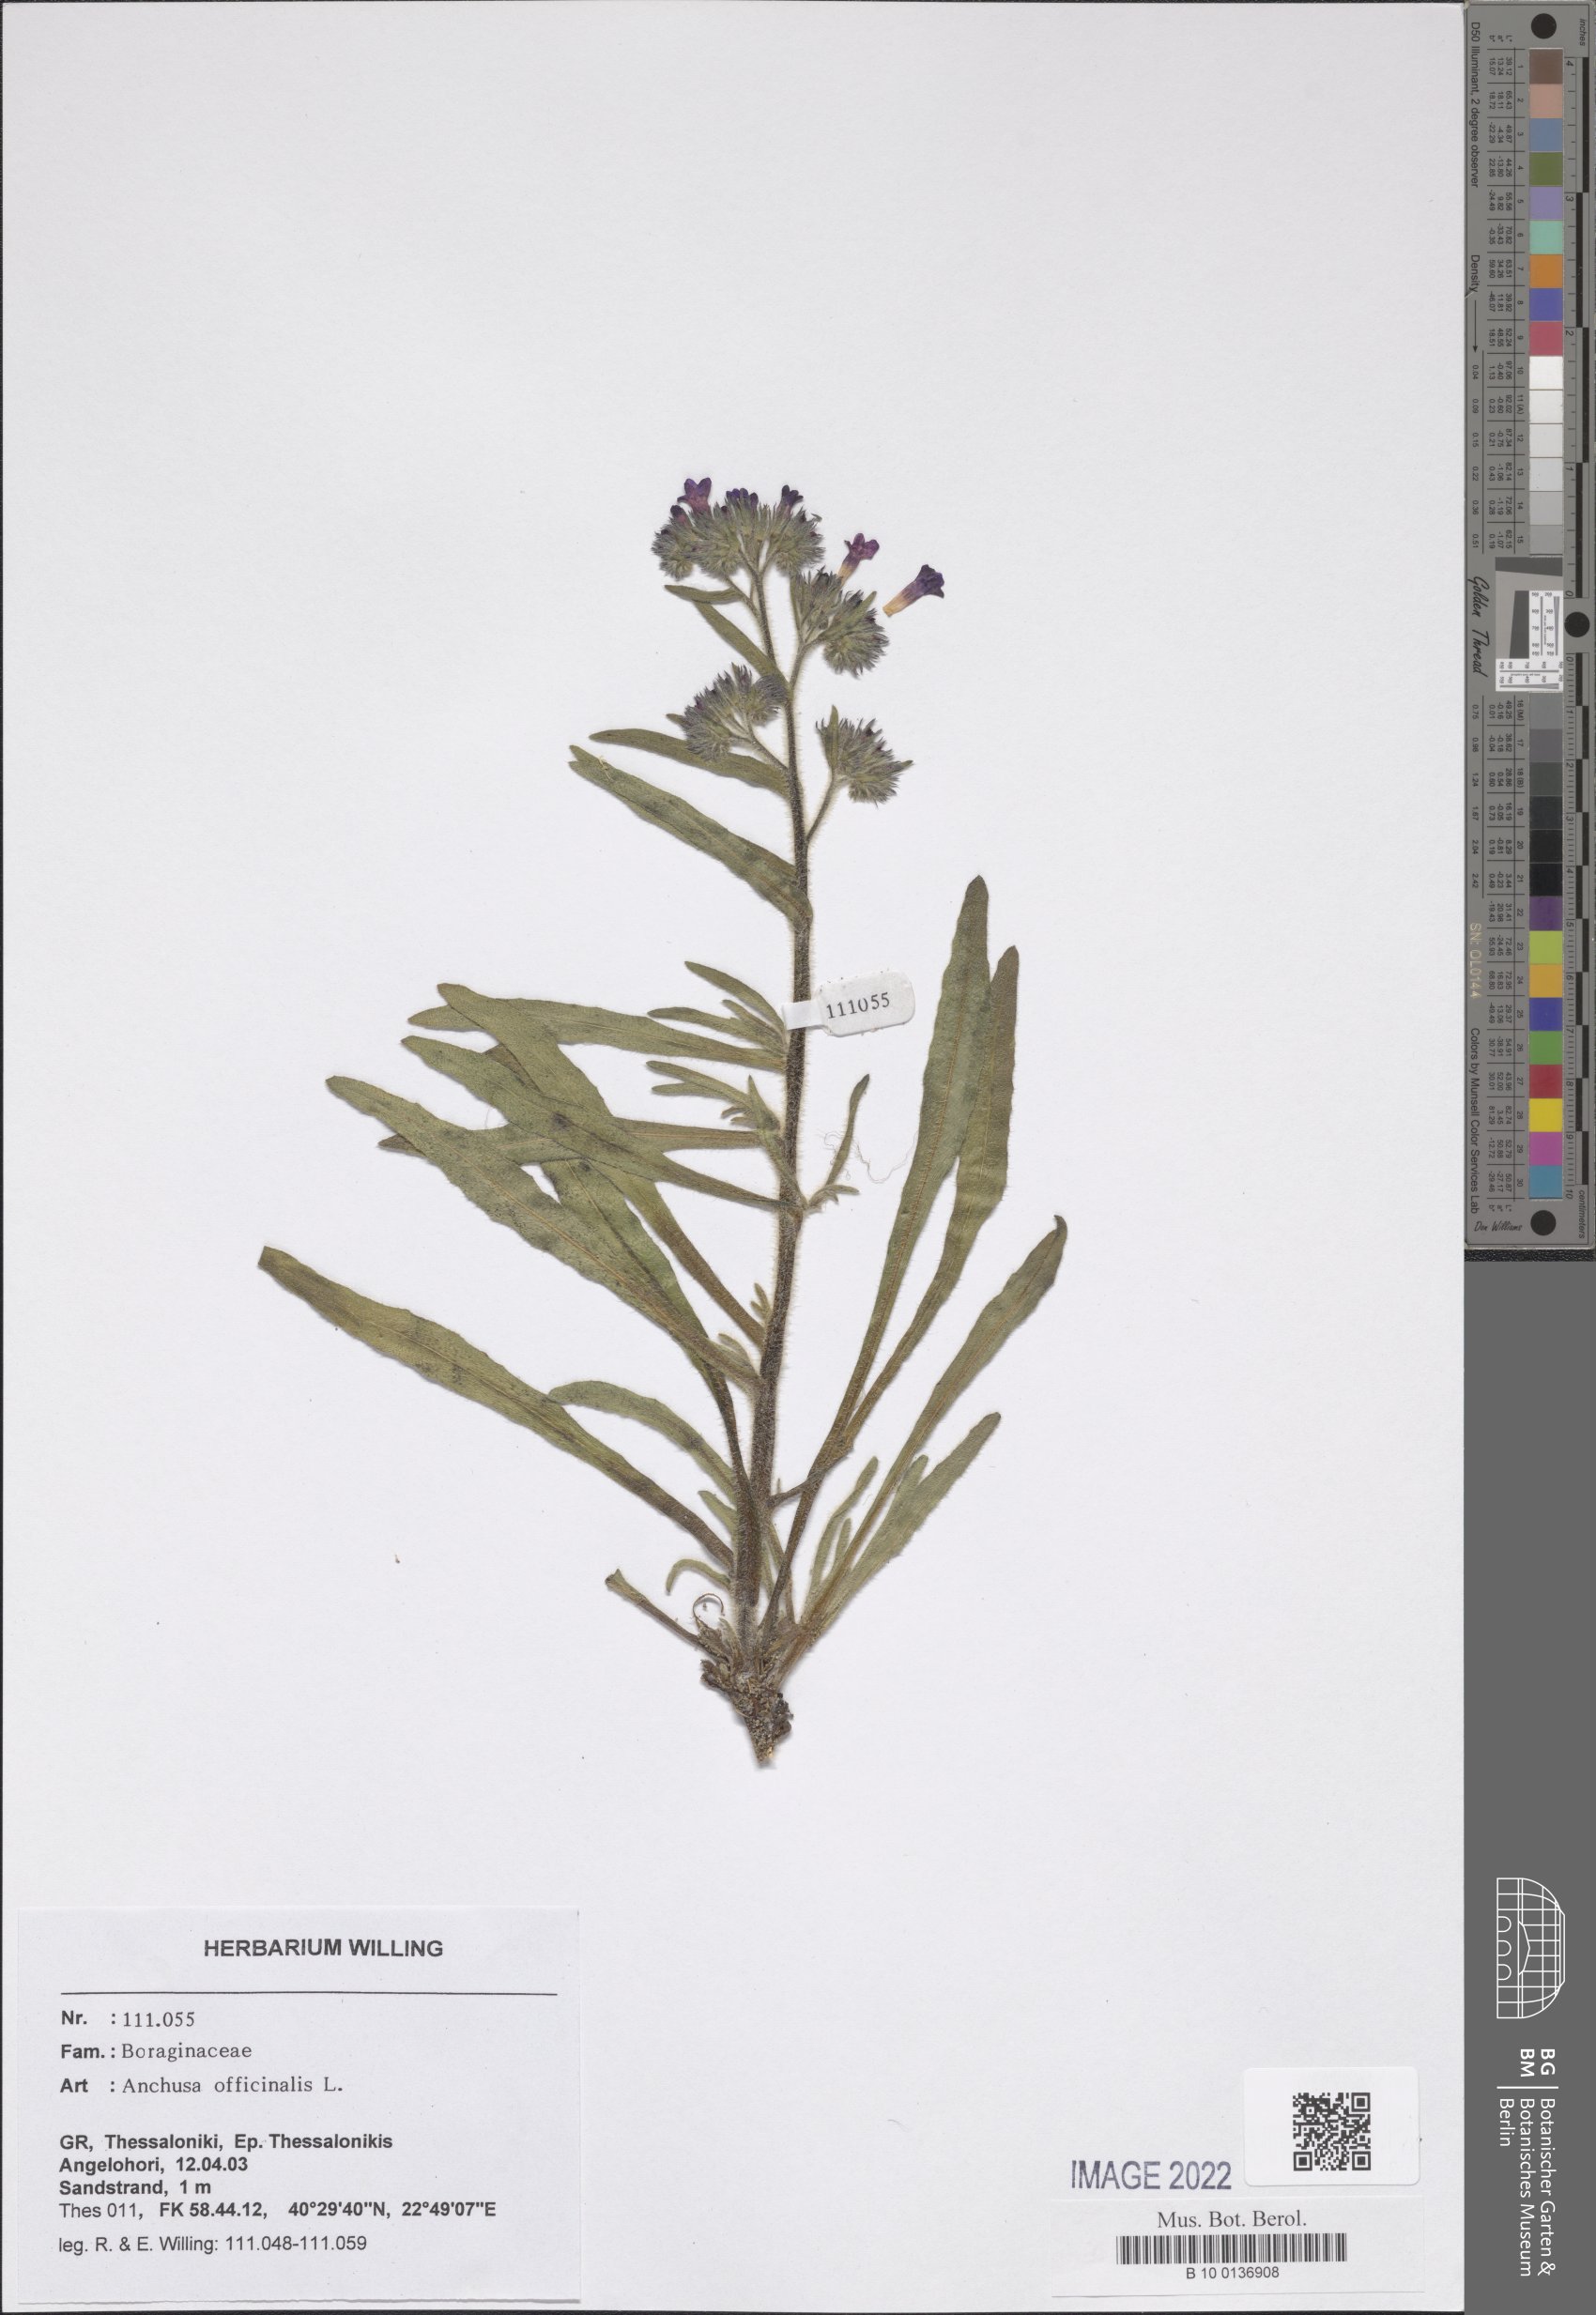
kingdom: Plantae
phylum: Tracheophyta
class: Magnoliopsida
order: Boraginales
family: Boraginaceae
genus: Anchusa
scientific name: Anchusa officinalis
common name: Alkanet
